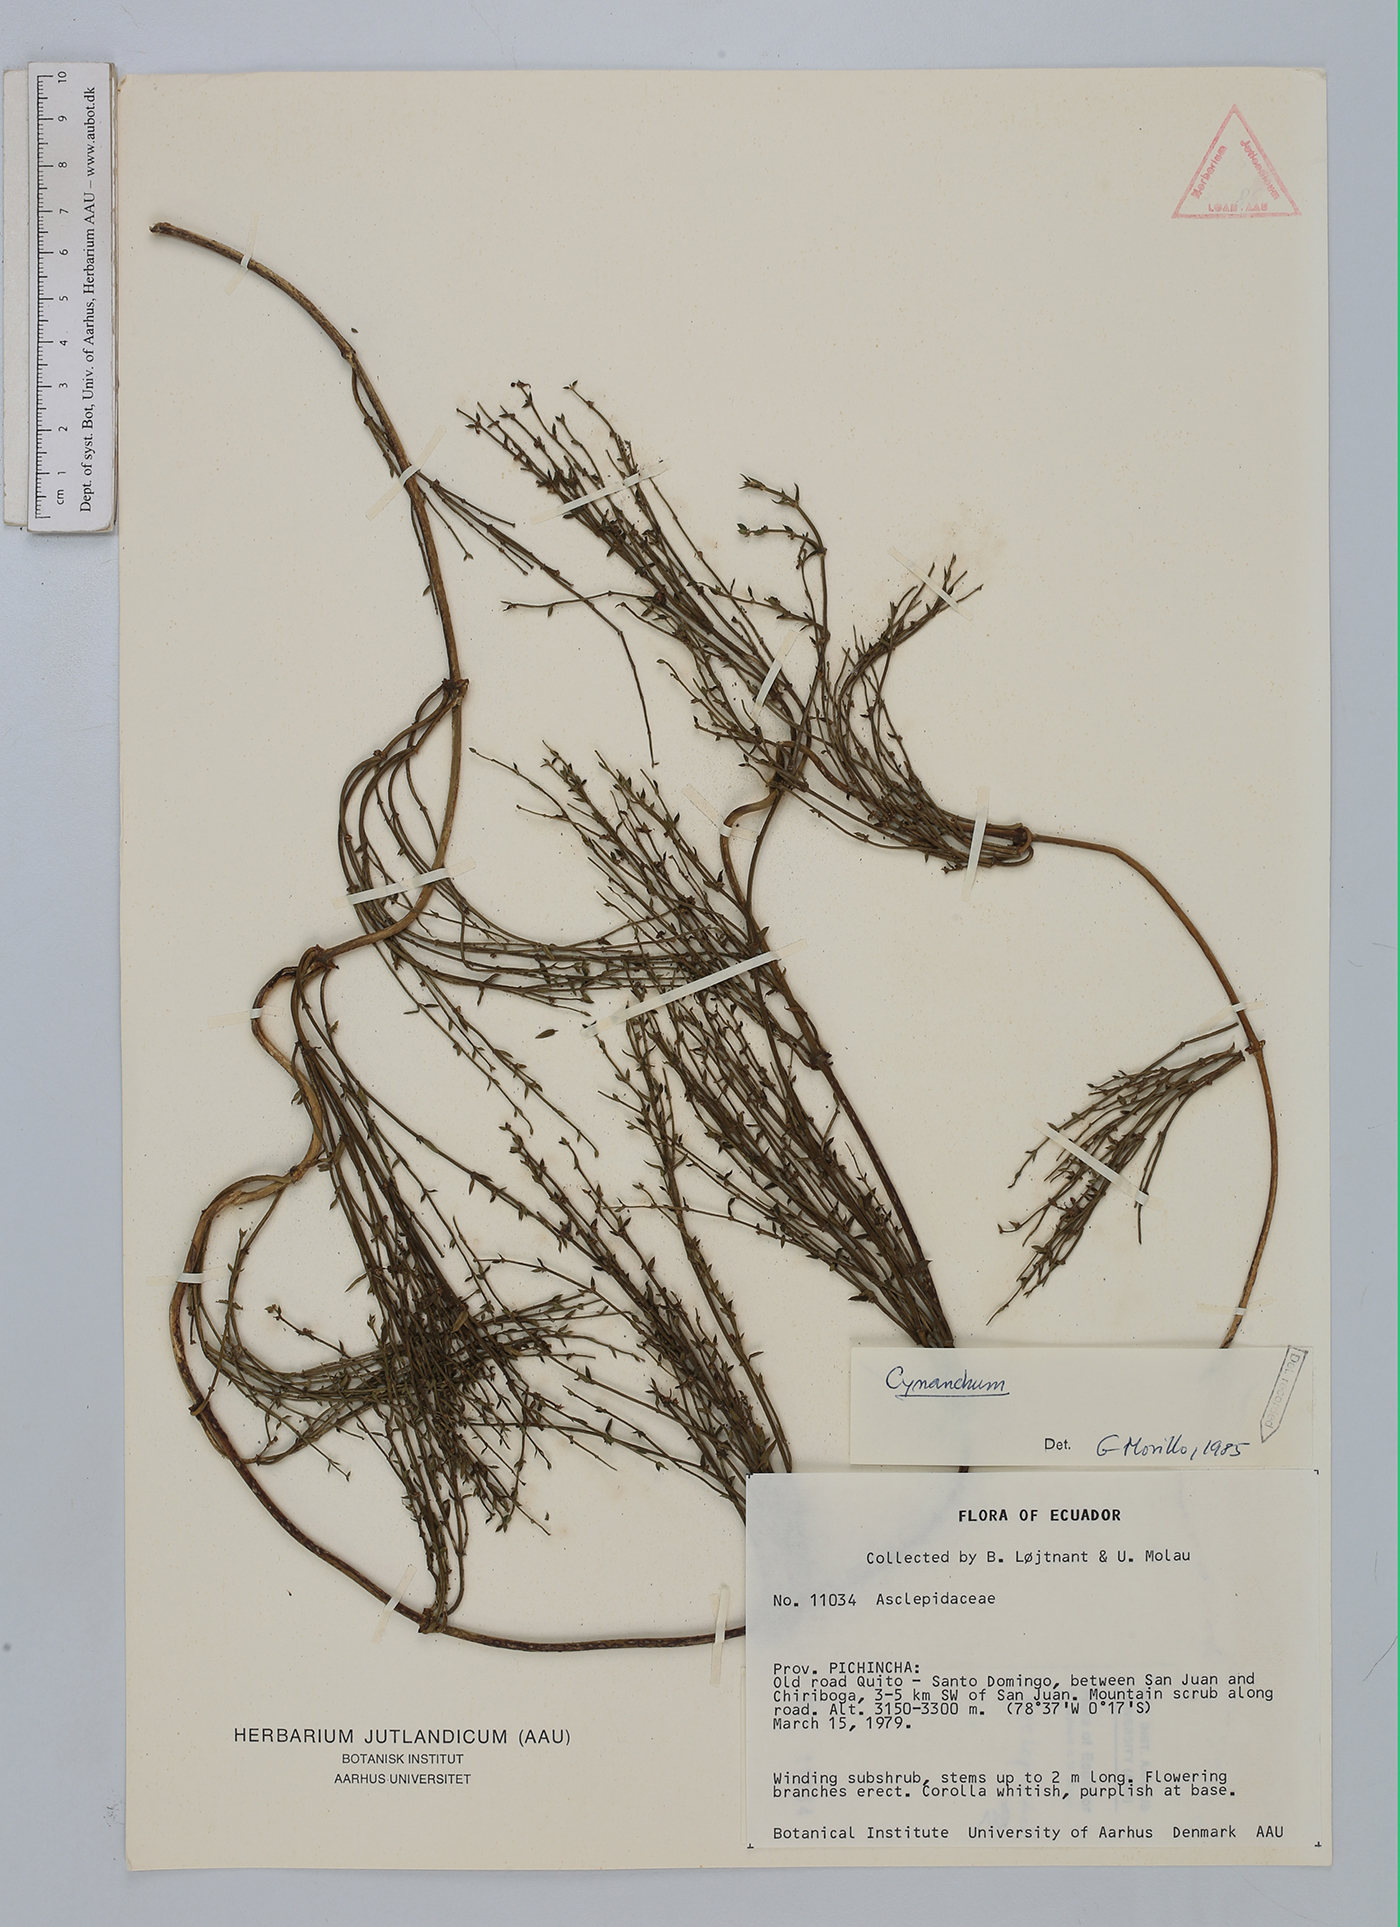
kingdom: Plantae
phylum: Tracheophyta
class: Magnoliopsida
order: Gentianales
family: Apocynaceae
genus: Cynanchum
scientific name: Cynanchum
